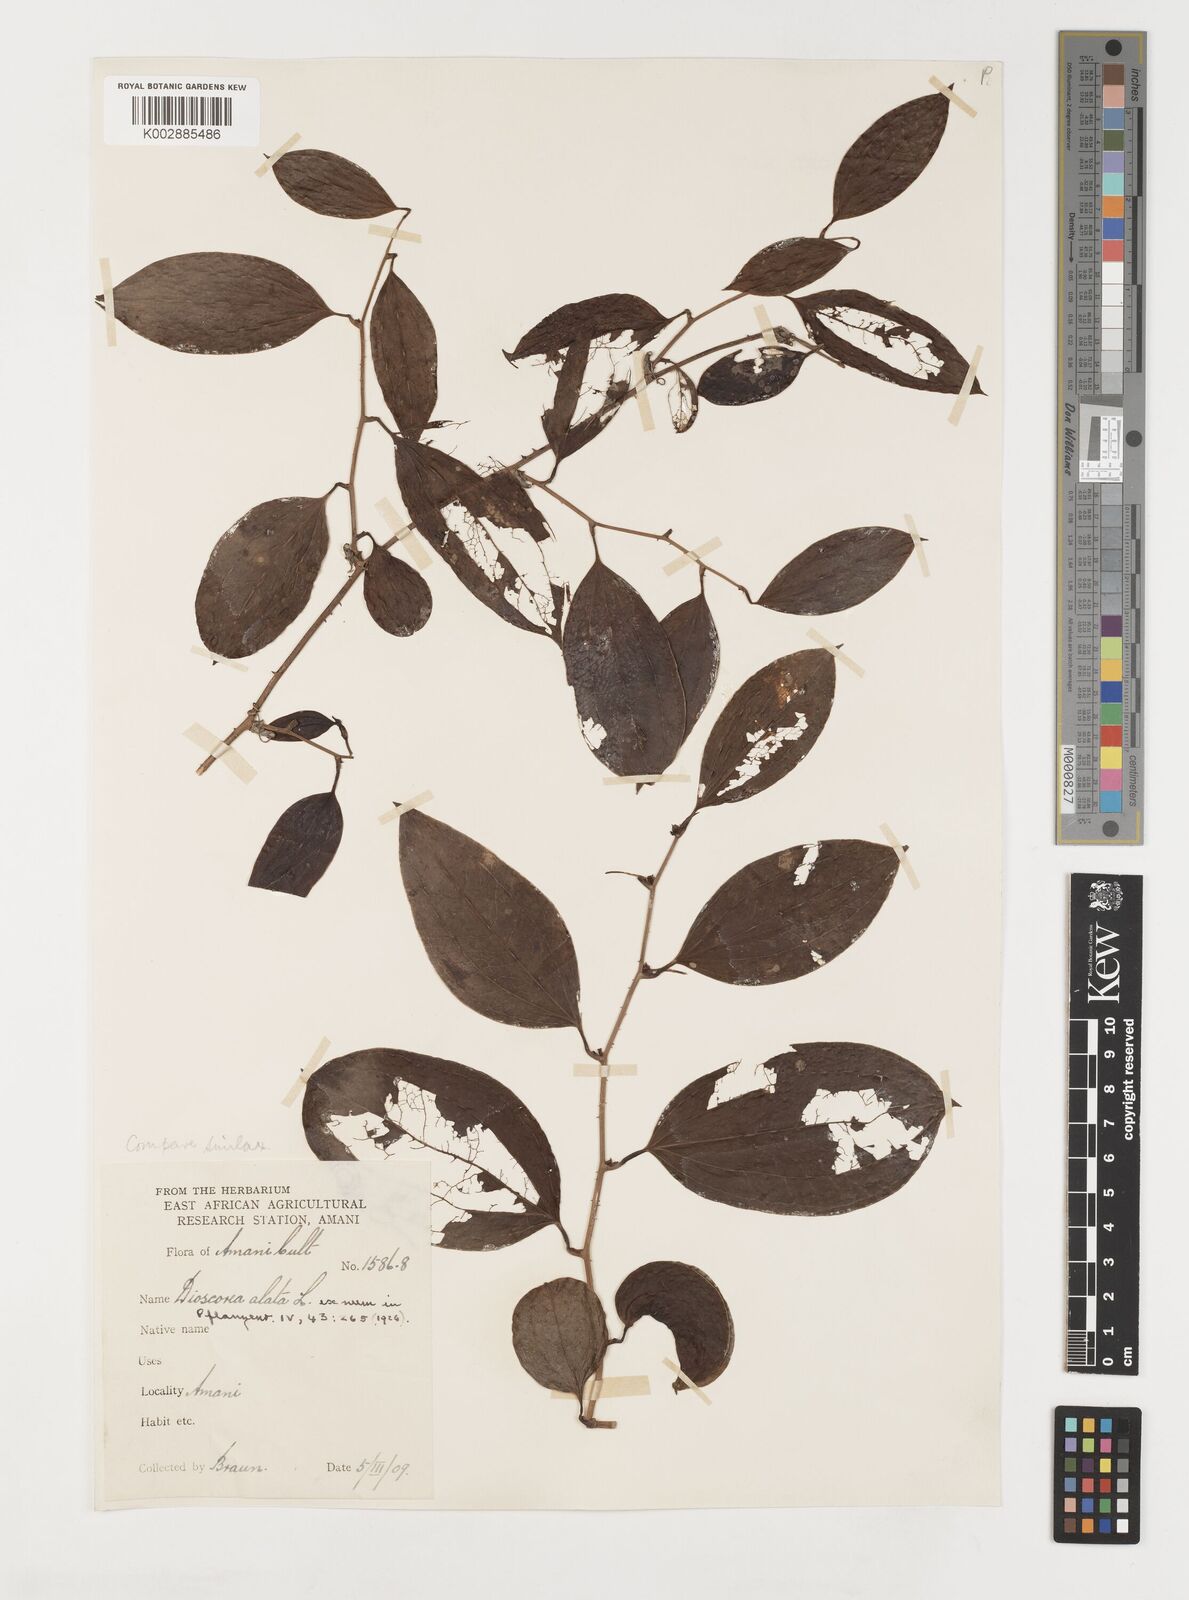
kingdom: Plantae
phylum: Tracheophyta
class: Liliopsida
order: Liliales
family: Smilacaceae
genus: Smilax
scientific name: Smilax
